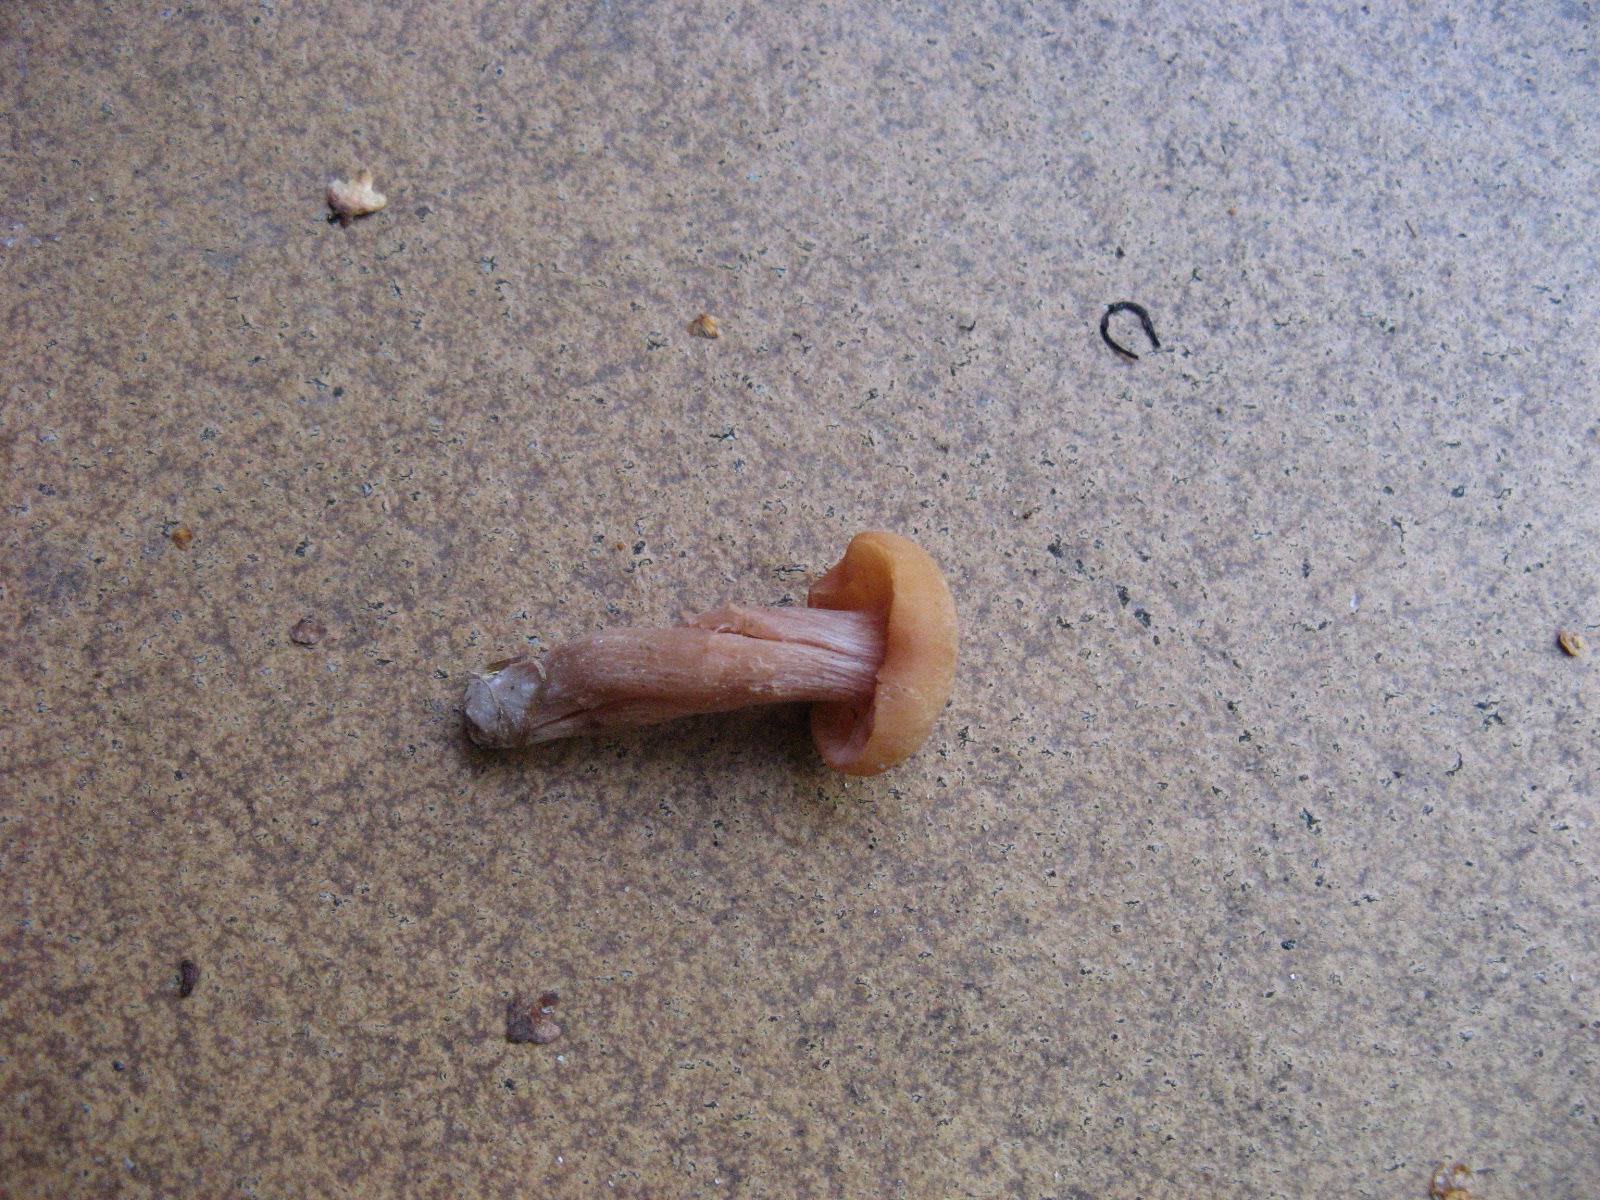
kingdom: Fungi
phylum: Basidiomycota
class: Agaricomycetes
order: Agaricales
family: Hydnangiaceae
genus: Laccaria
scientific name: Laccaria laccata
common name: rød ametysthat
